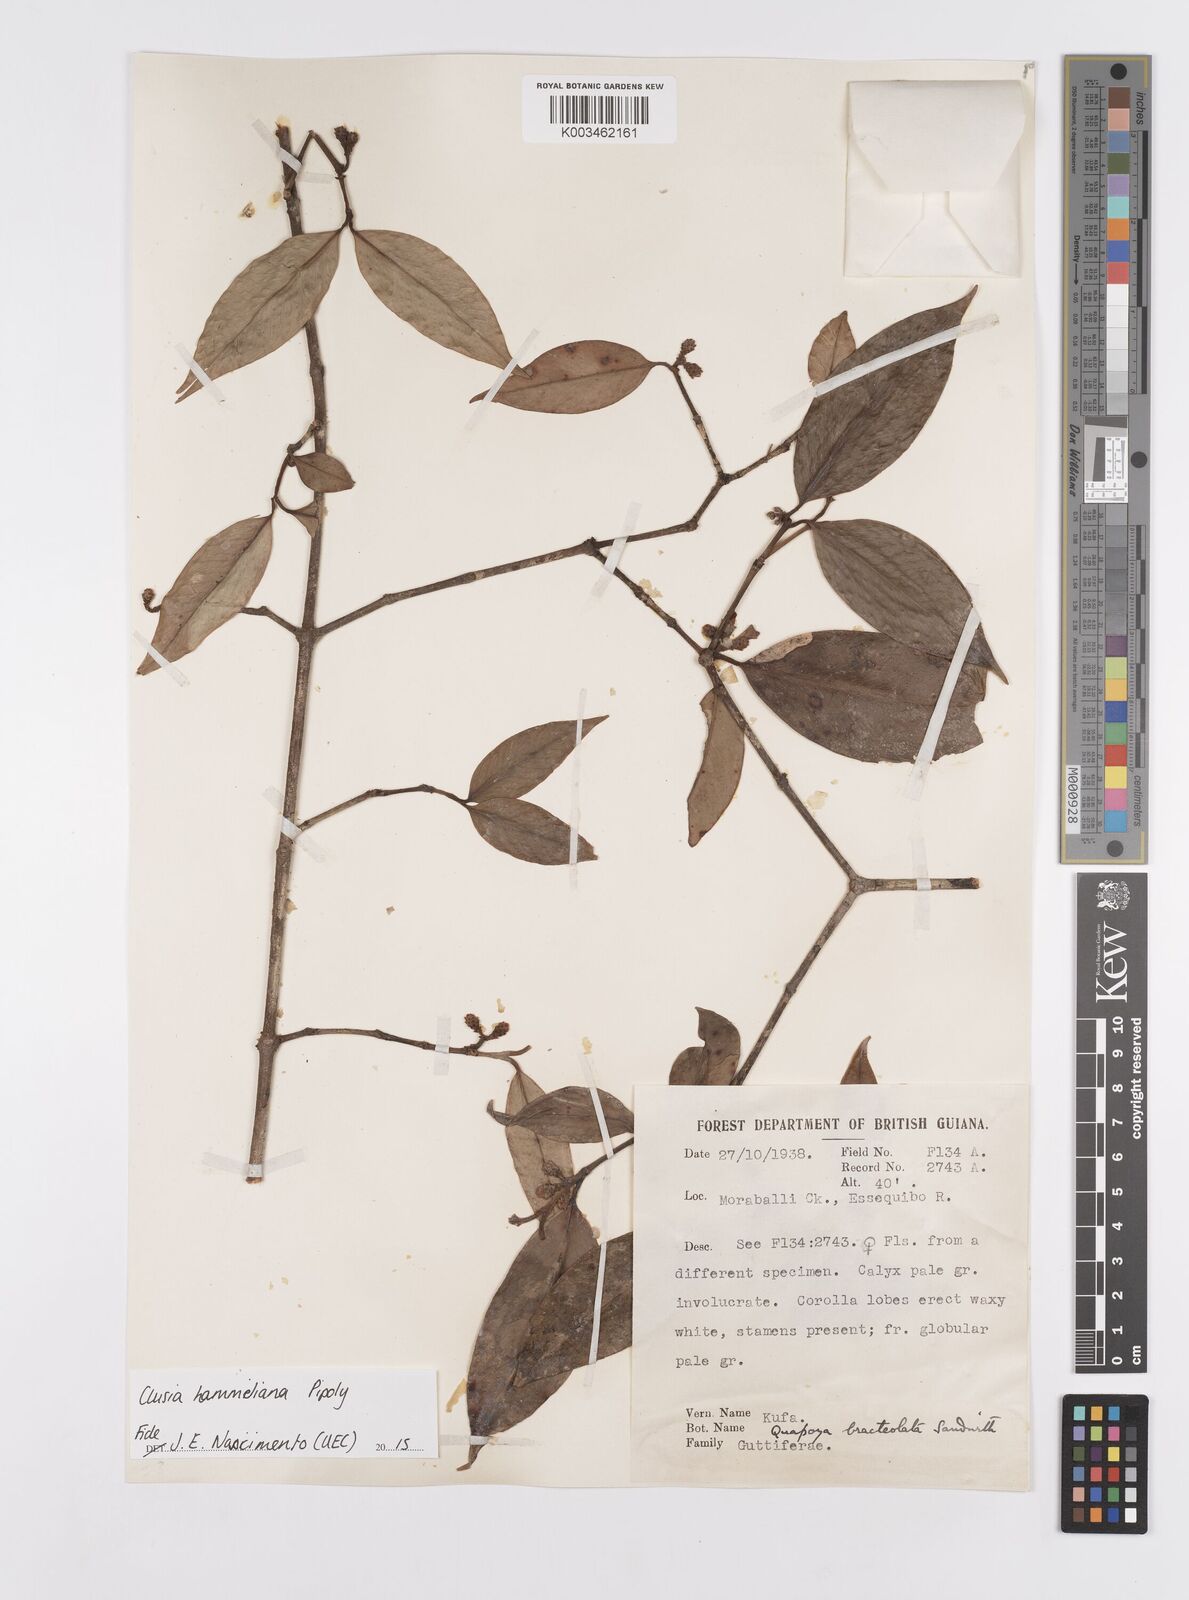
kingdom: Plantae
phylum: Tracheophyta
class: Magnoliopsida
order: Malpighiales
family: Clusiaceae
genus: Clusia
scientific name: Clusia hammeliana
